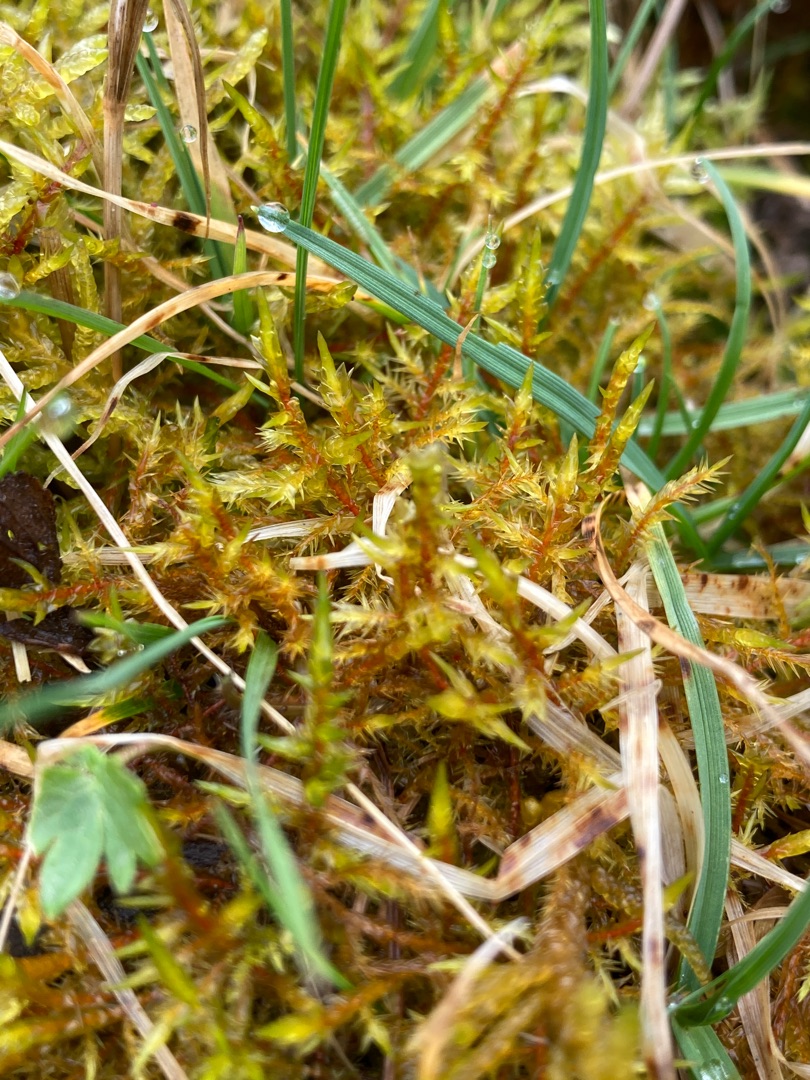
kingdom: Plantae
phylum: Bryophyta
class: Bryopsida
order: Hypnales
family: Pylaisiaceae
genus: Calliergonella
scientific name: Calliergonella cuspidata
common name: Spids spydmos
